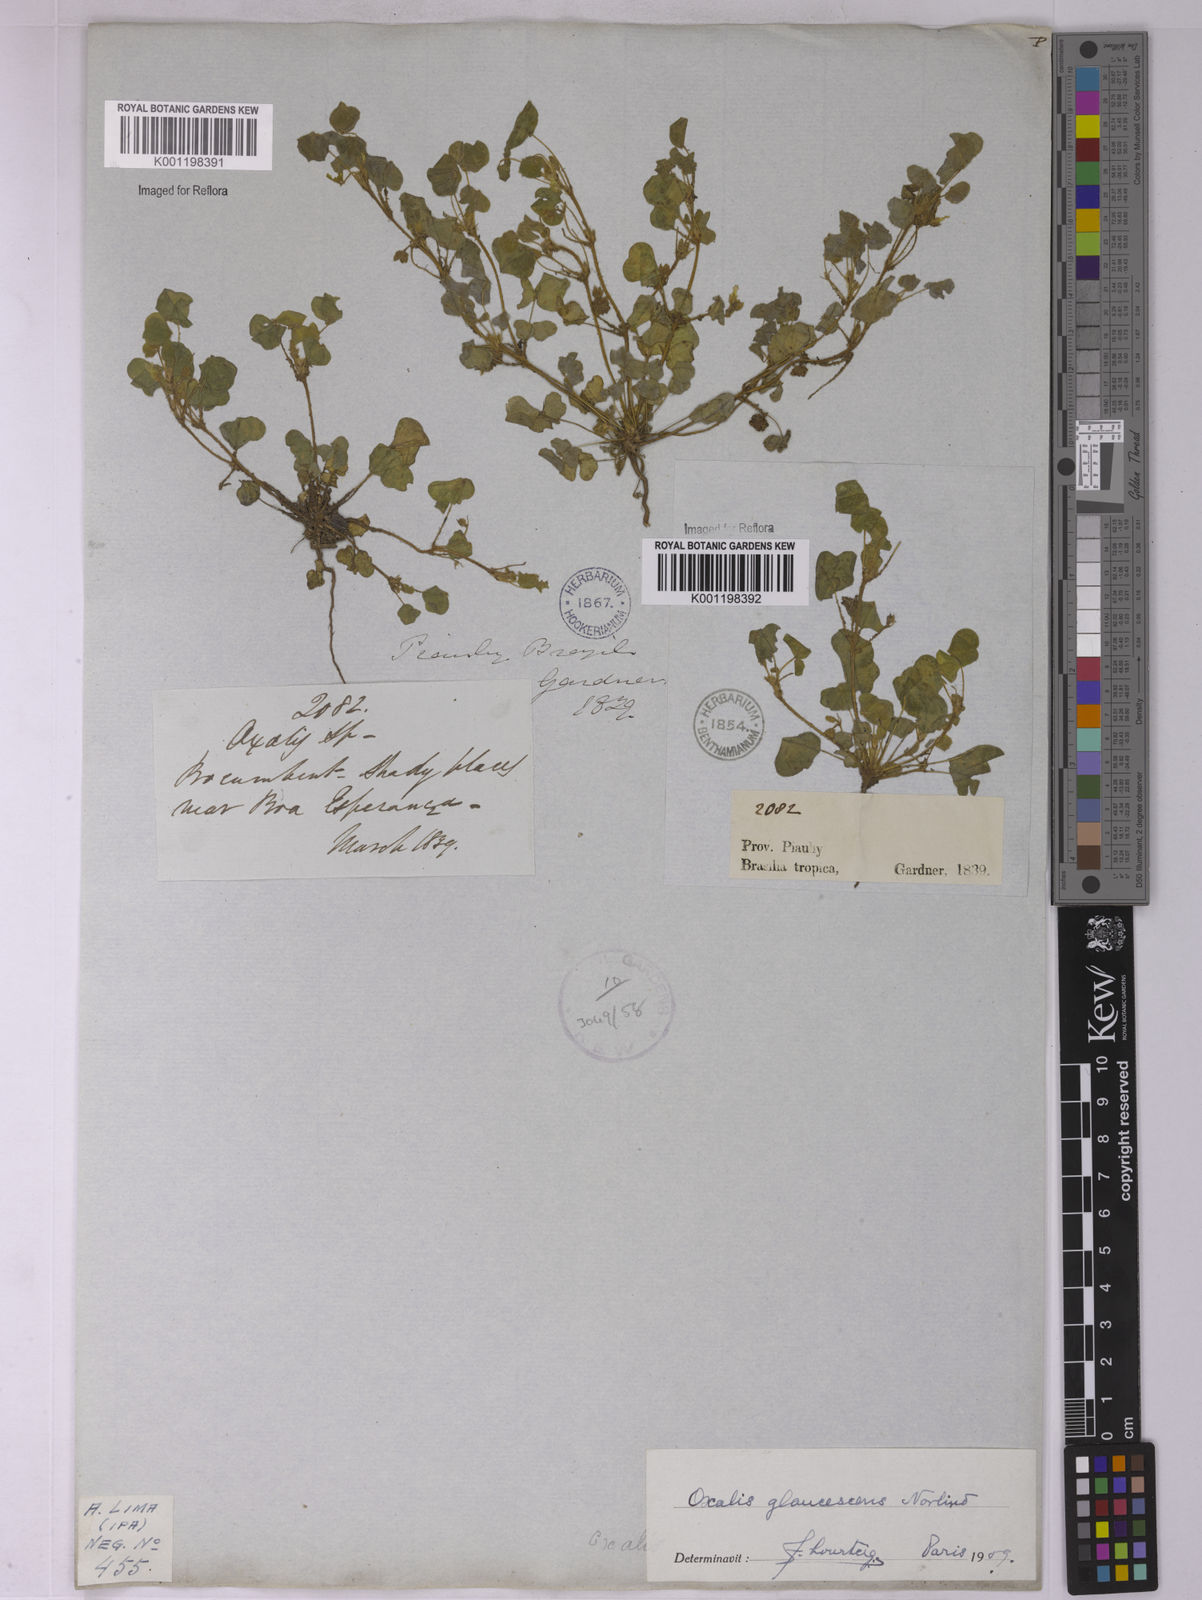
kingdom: Plantae
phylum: Tracheophyta
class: Magnoliopsida
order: Oxalidales
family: Oxalidaceae
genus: Oxalis
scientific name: Oxalis glaucescens
